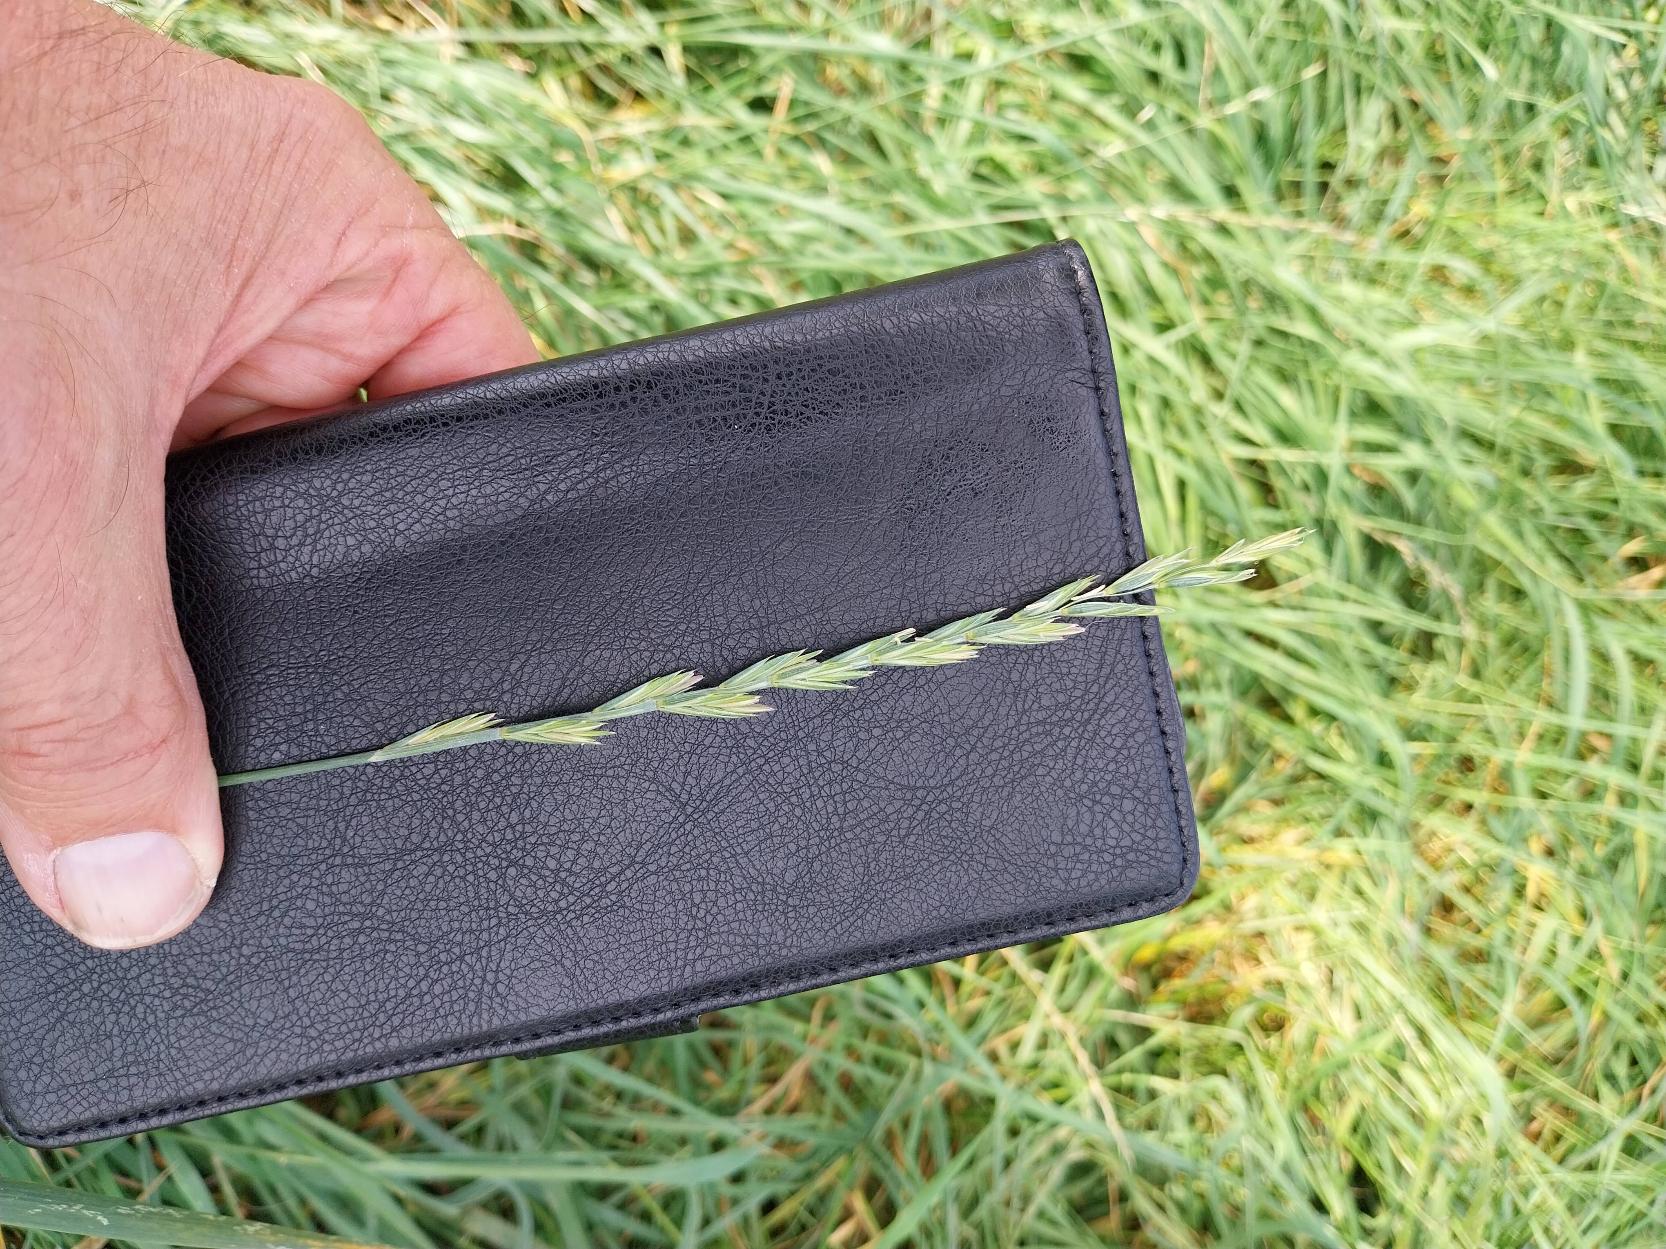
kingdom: Plantae
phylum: Tracheophyta
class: Liliopsida
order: Poales
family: Poaceae
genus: Elymus
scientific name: Elymus repens
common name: Almindelig kvik
